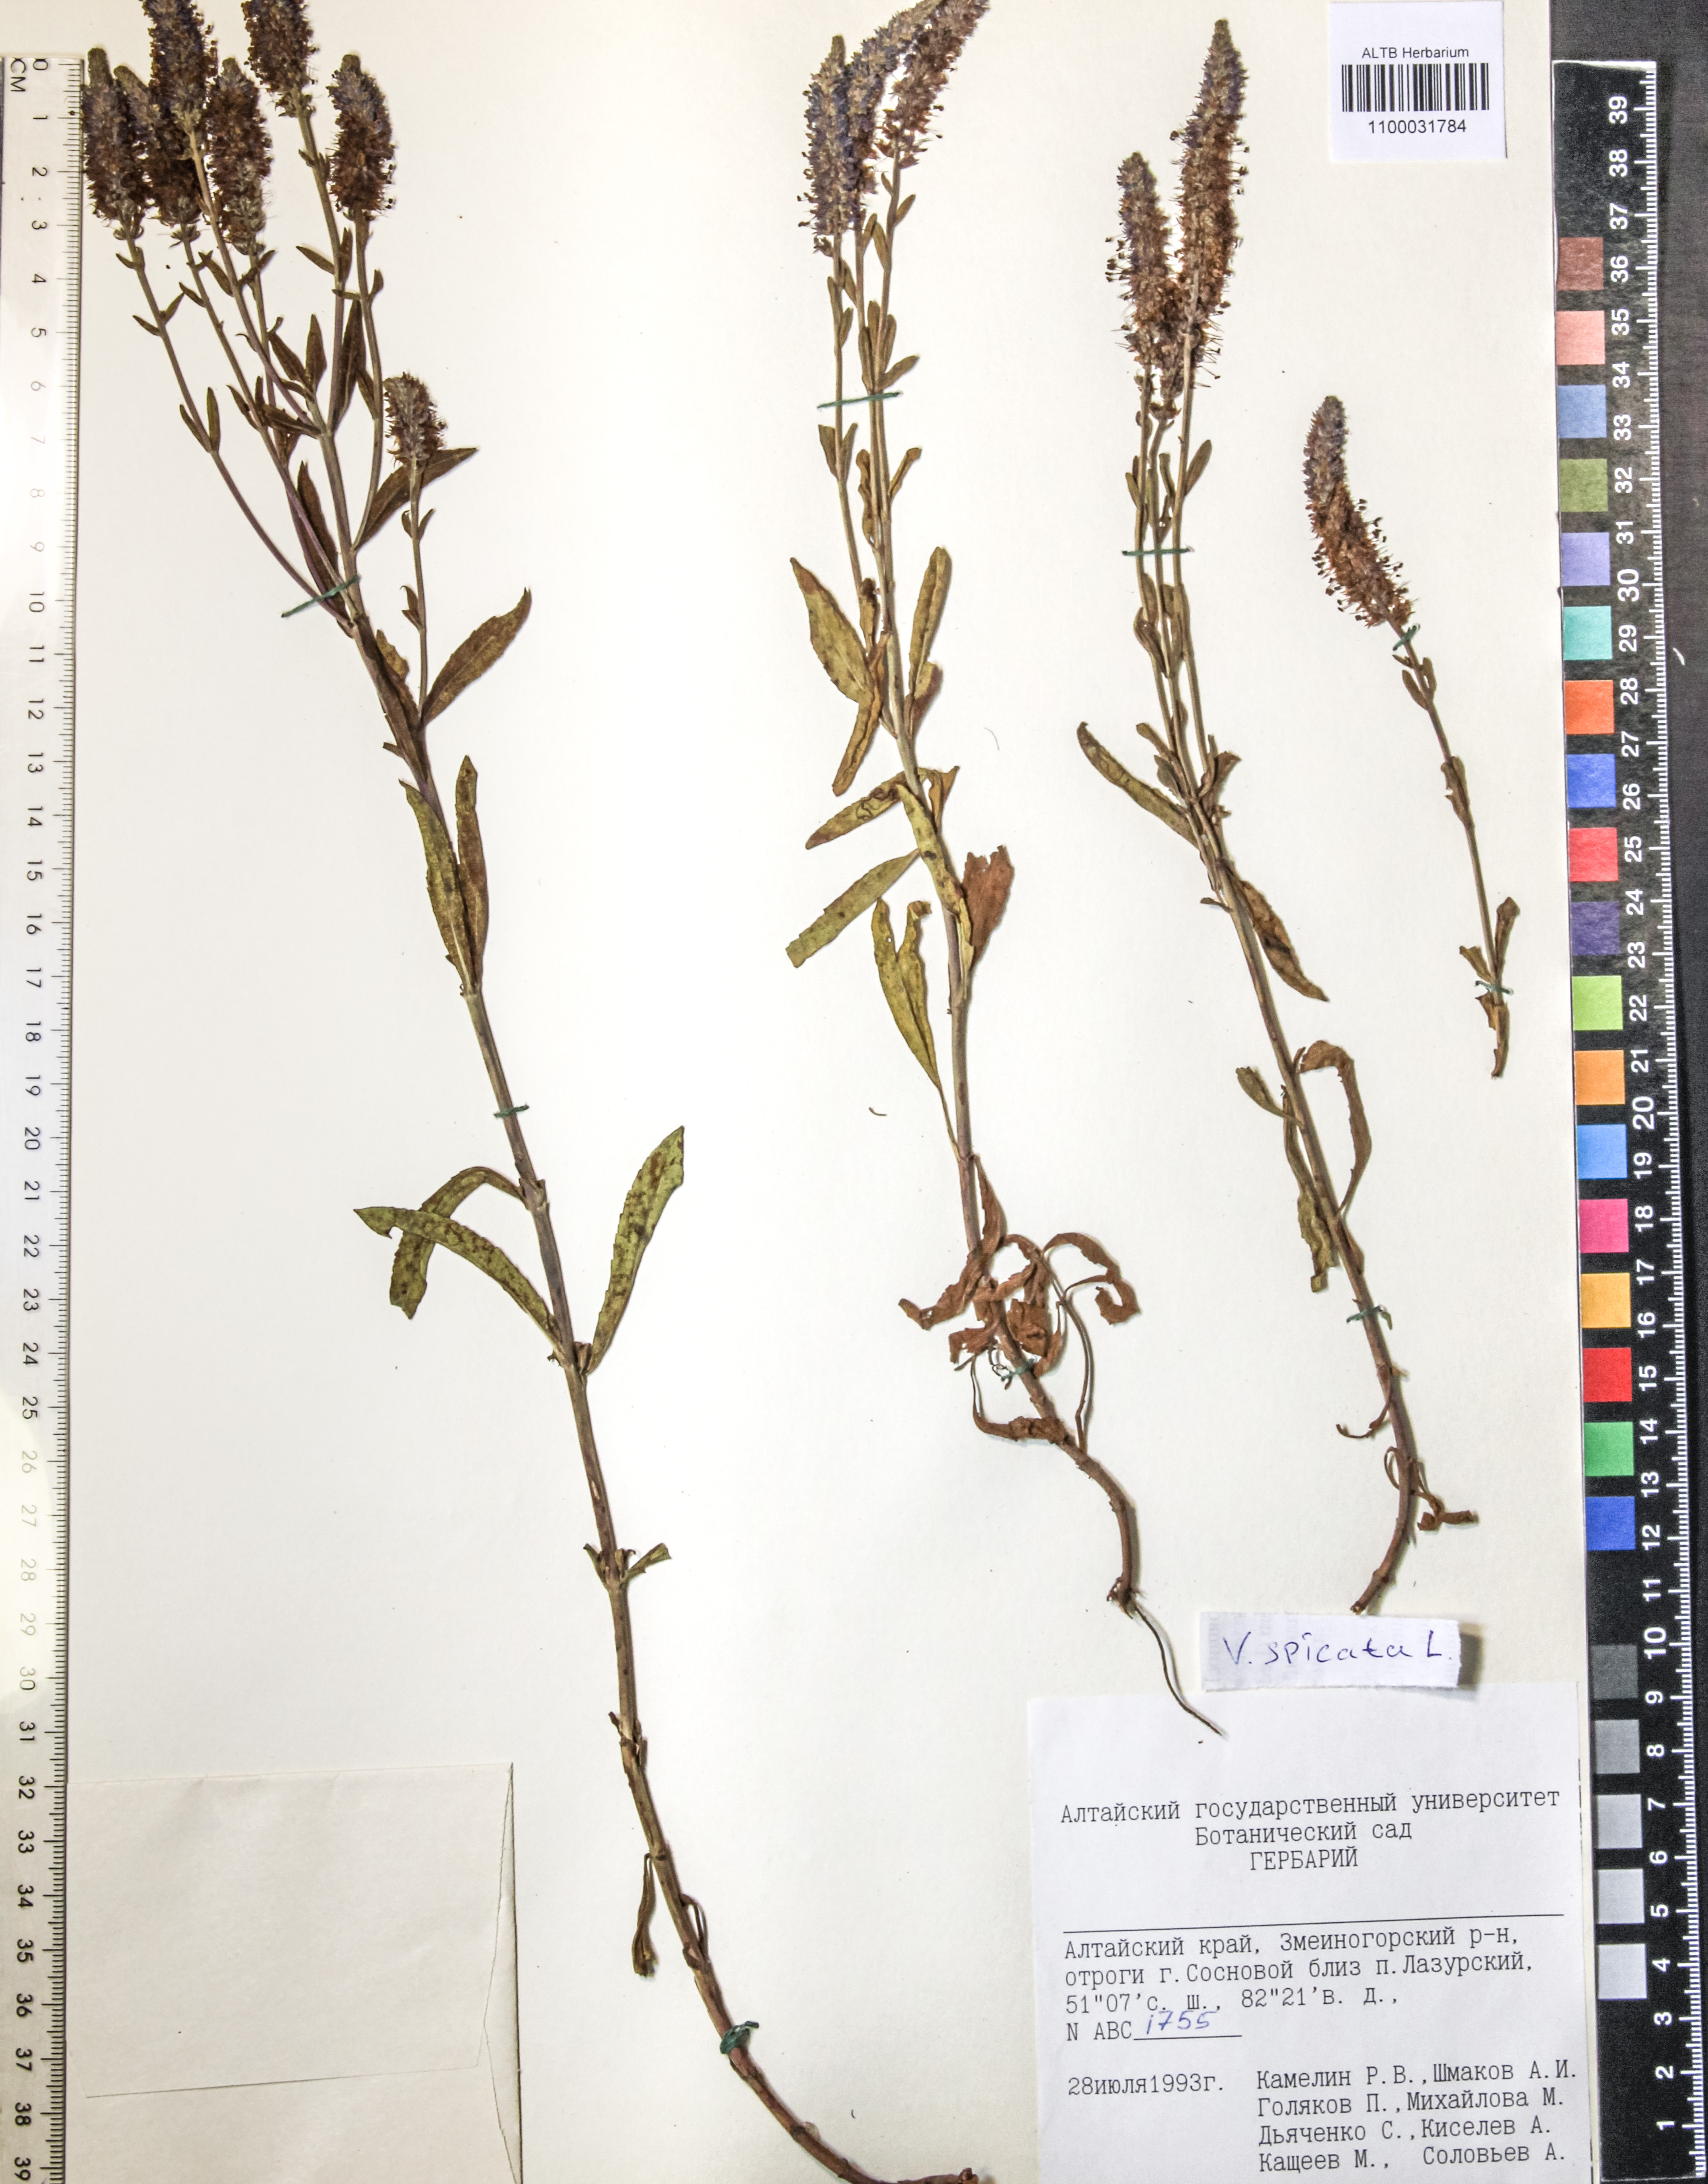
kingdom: Plantae
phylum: Tracheophyta
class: Magnoliopsida
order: Lamiales
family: Plantaginaceae
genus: Veronica
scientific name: Veronica krylovii
